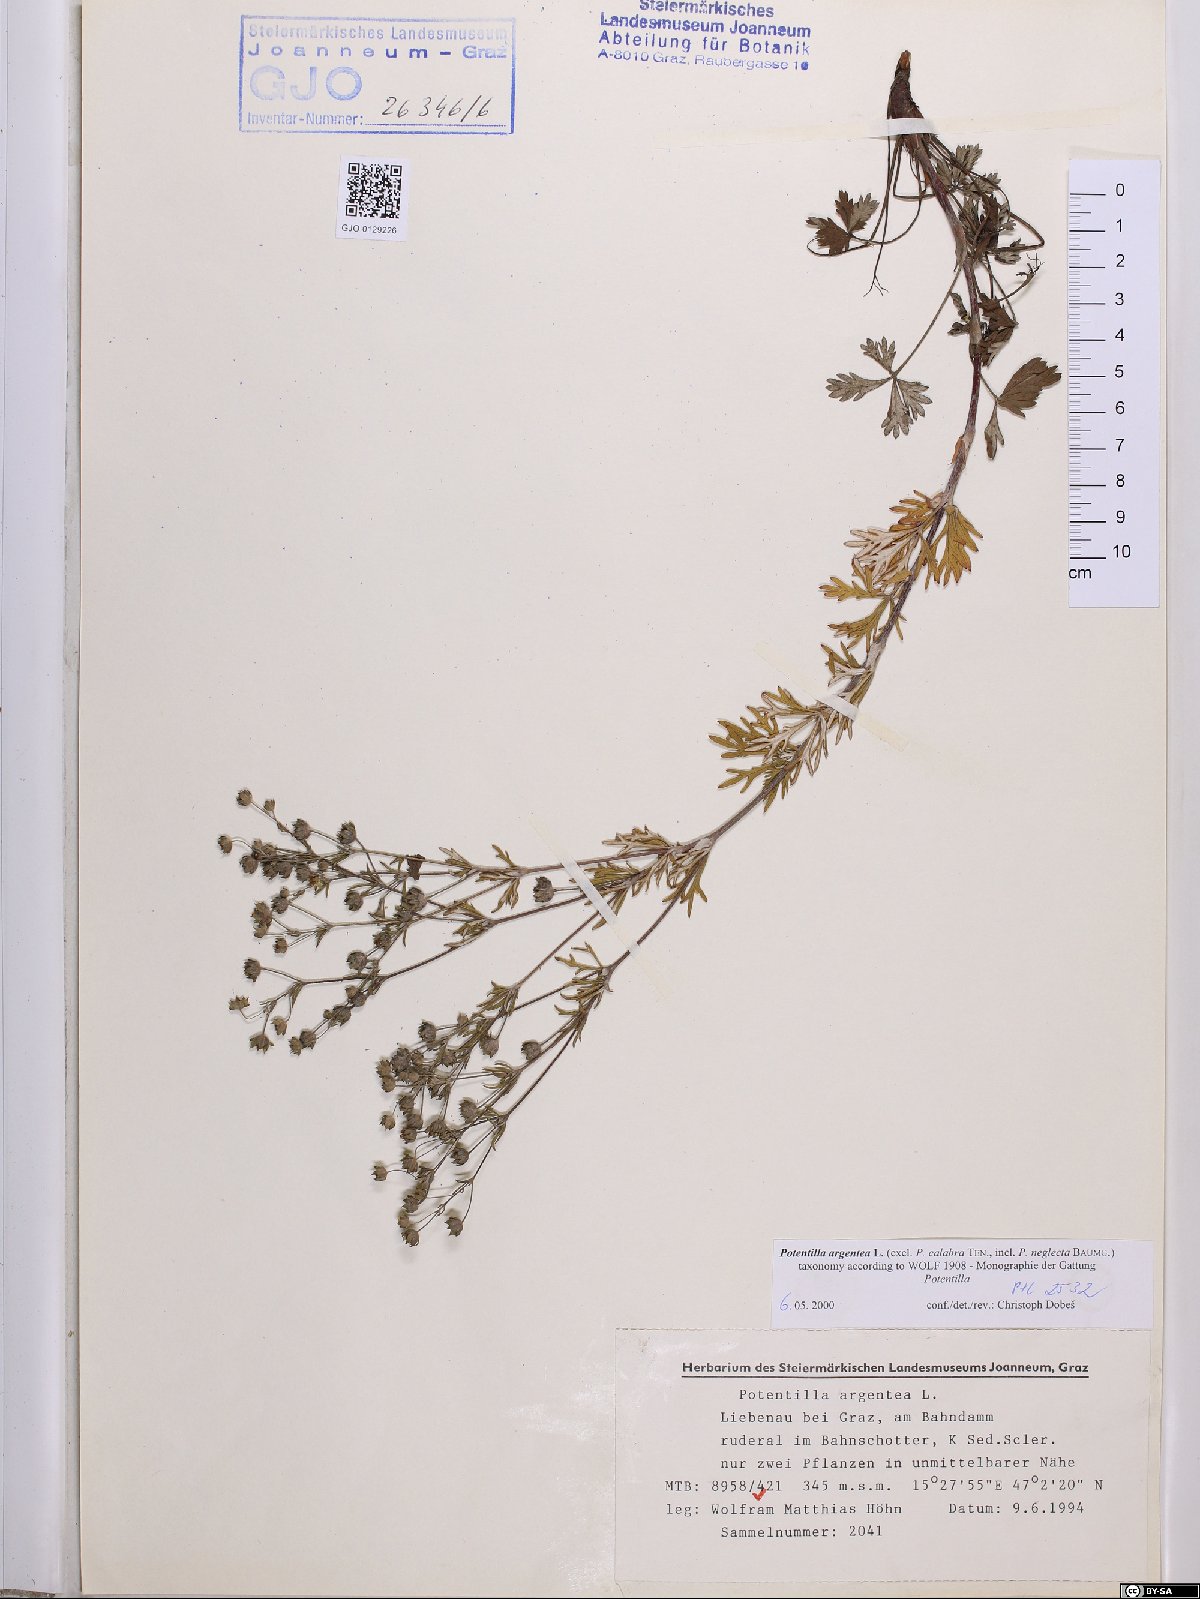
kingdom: Plantae
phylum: Tracheophyta
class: Magnoliopsida
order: Rosales
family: Rosaceae
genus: Potentilla
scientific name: Potentilla argentea
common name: Hoary cinquefoil
